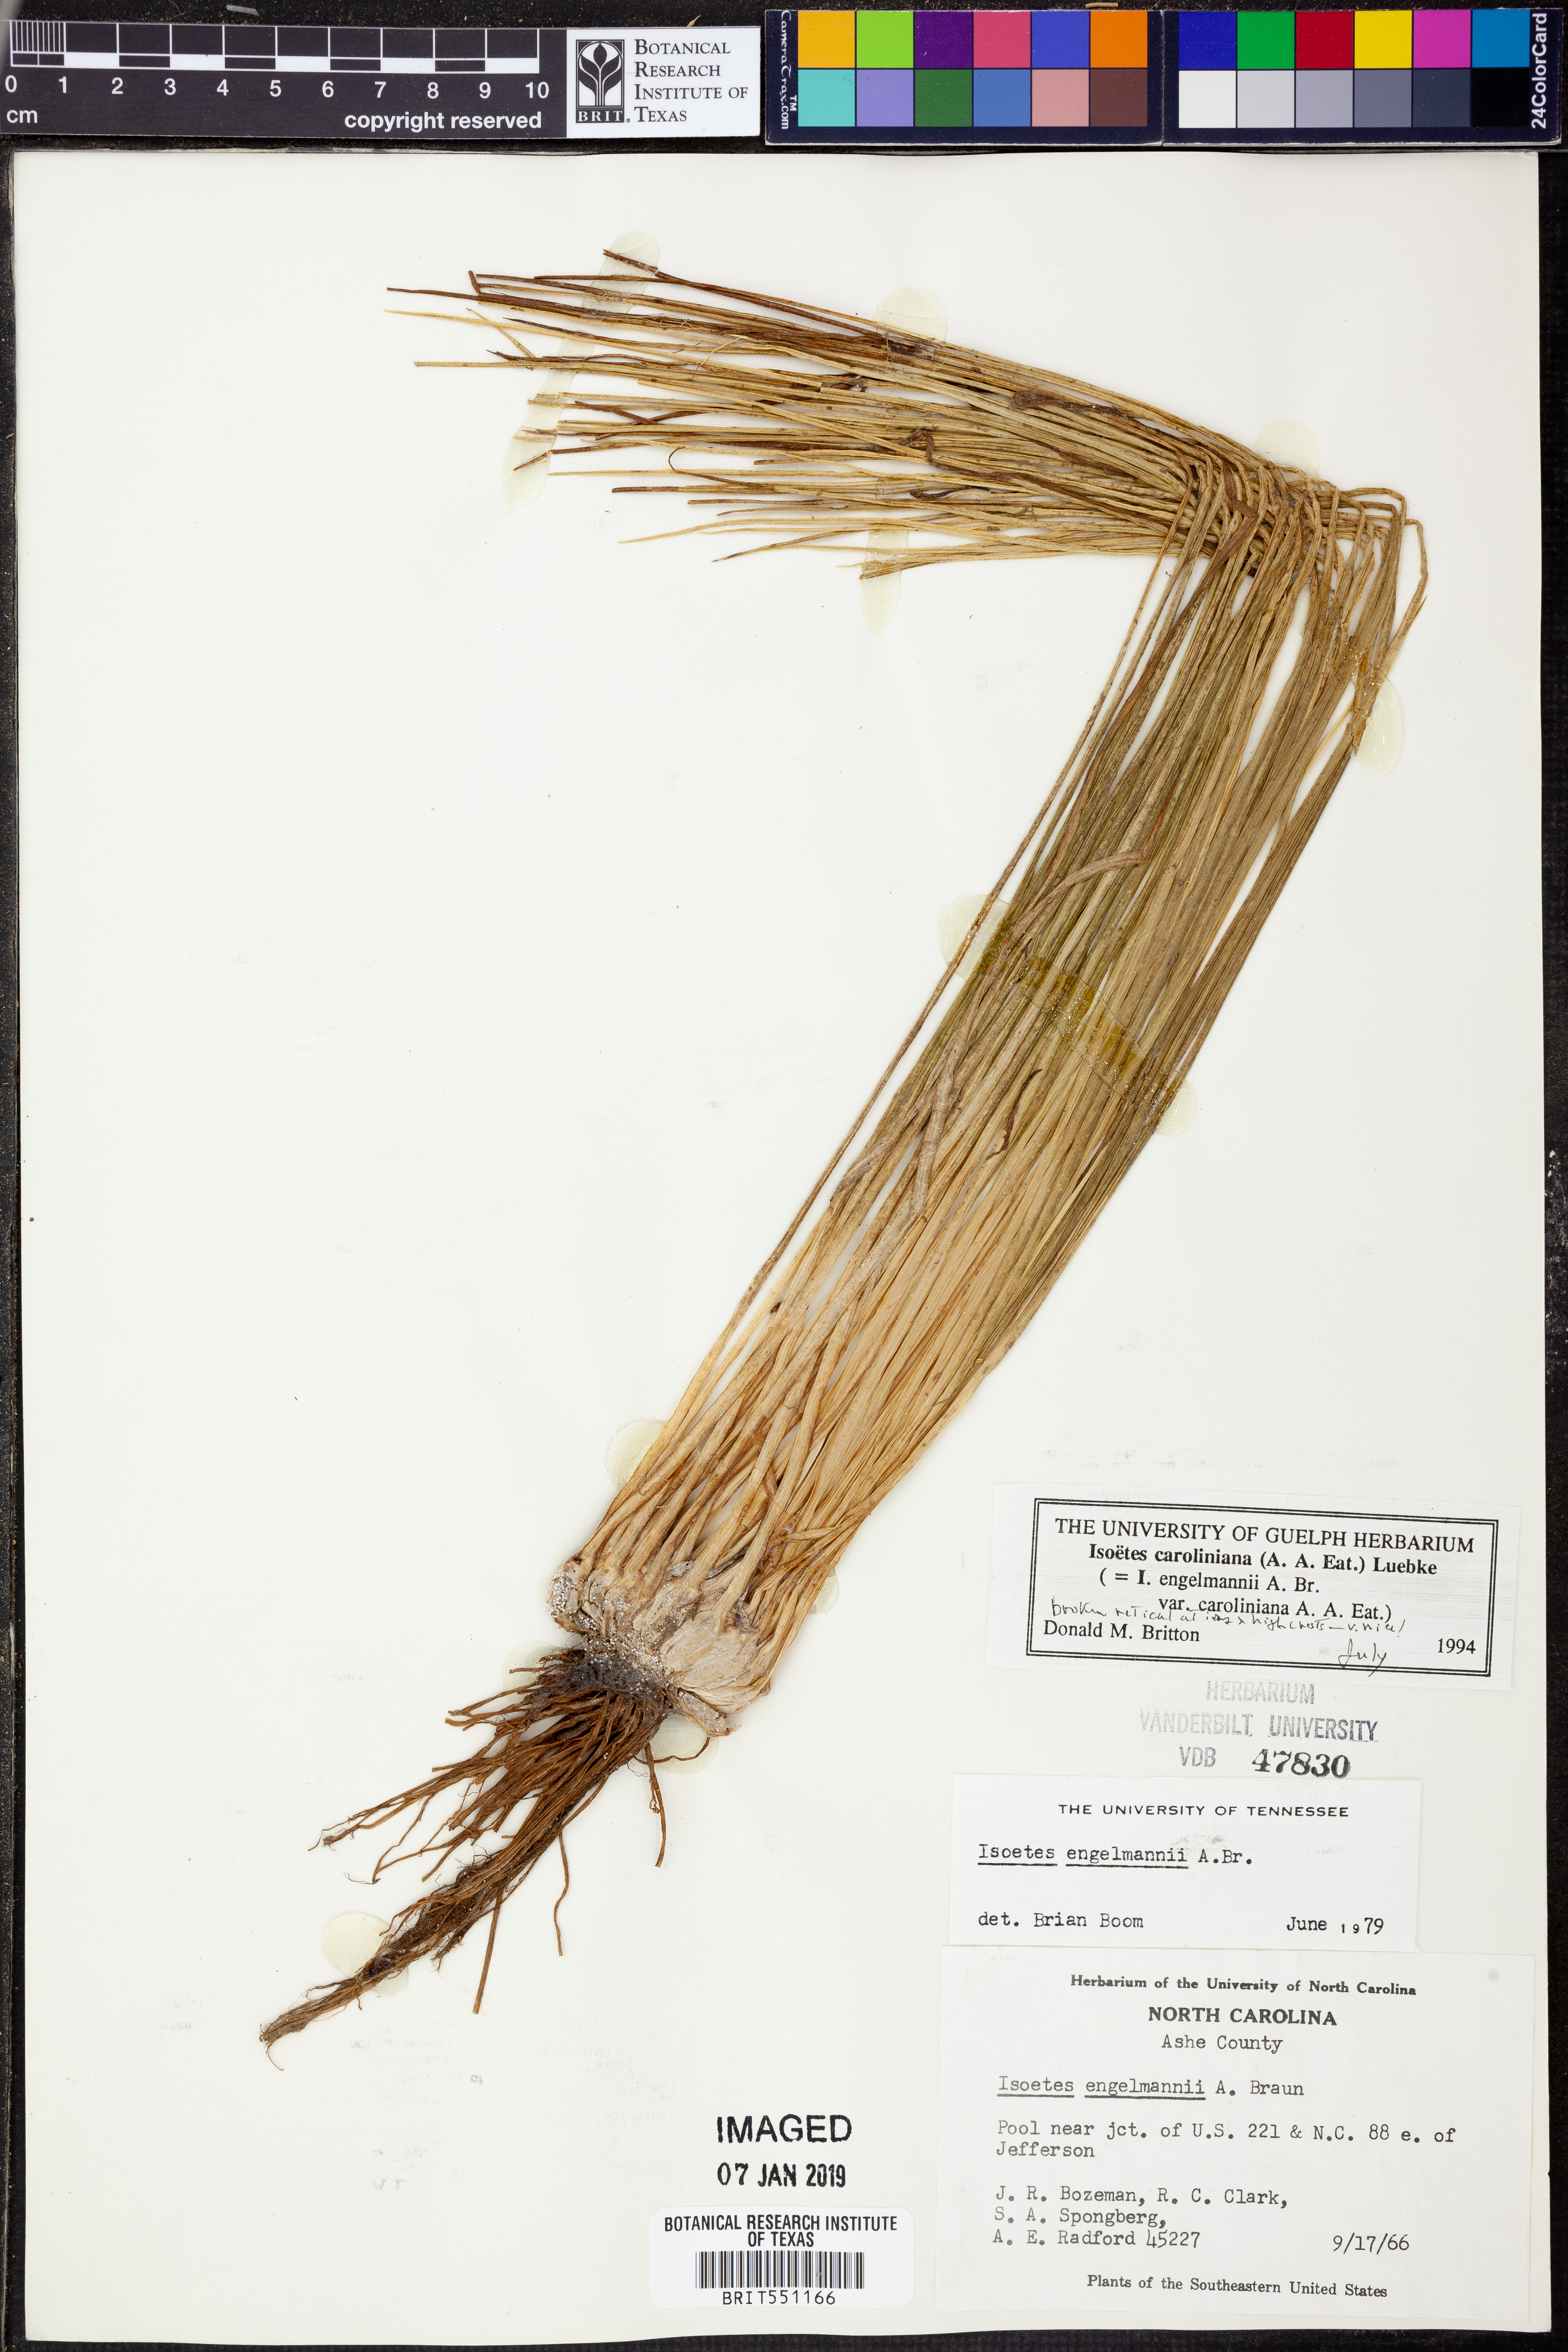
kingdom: Plantae
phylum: Tracheophyta
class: Lycopodiopsida
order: Isoetales
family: Isoetaceae
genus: Isoetes
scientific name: Isoetes caroliniana
